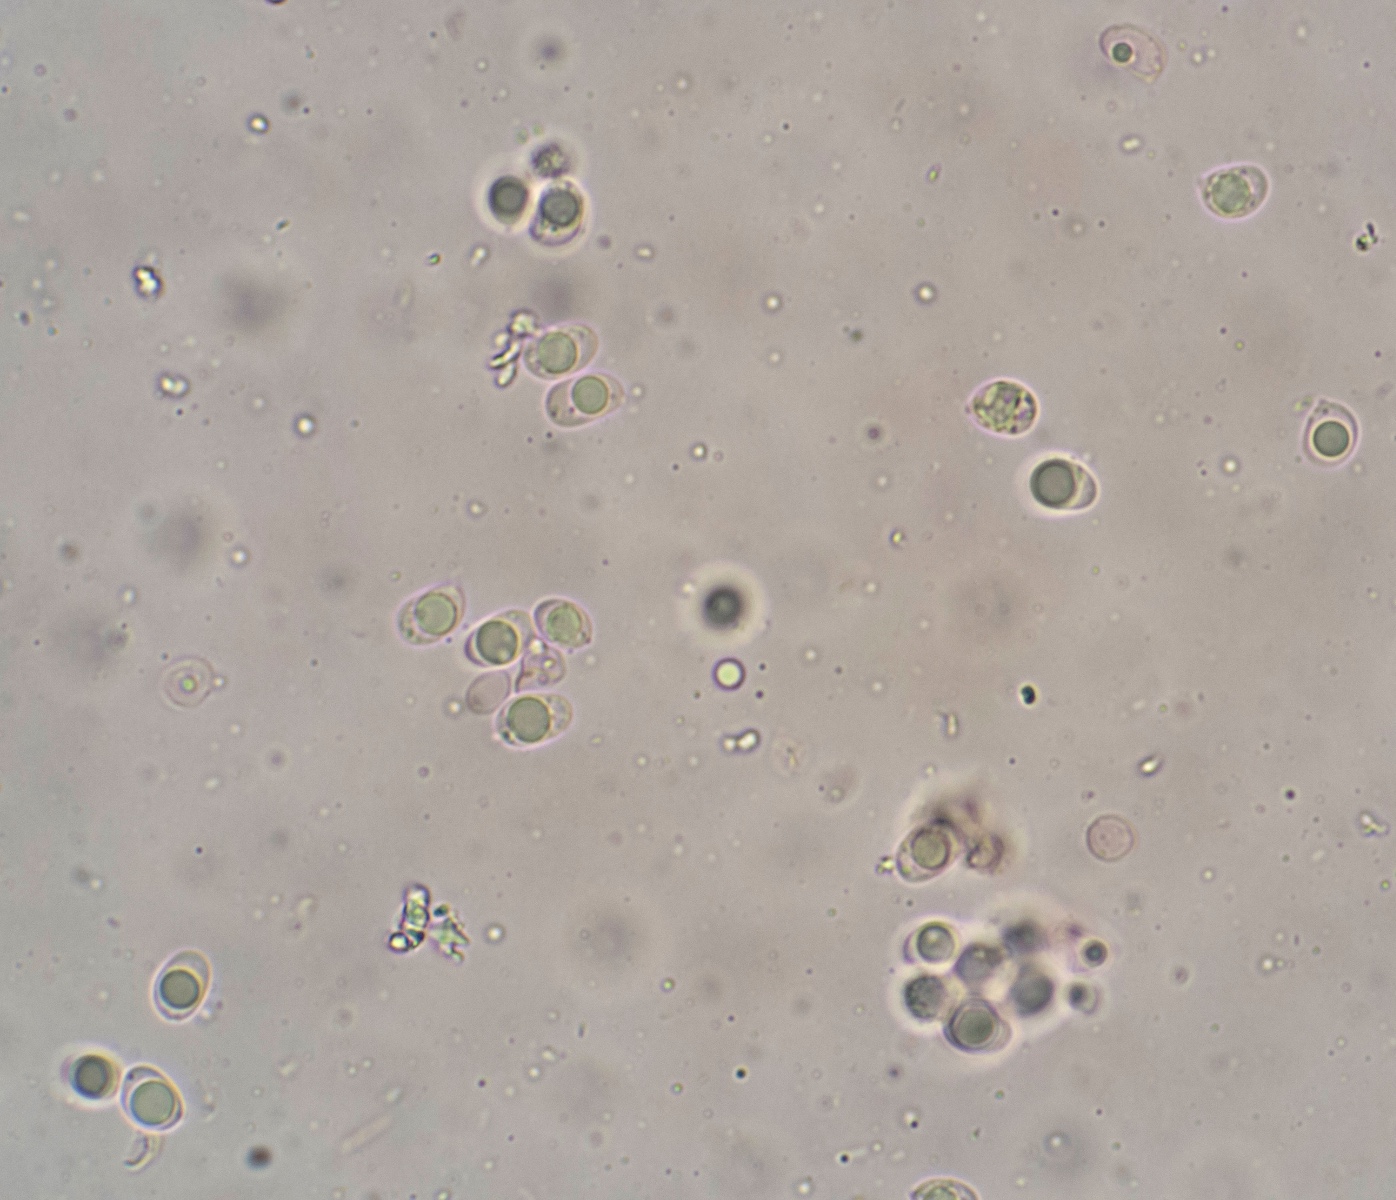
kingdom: Fungi
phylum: Basidiomycota
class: Agaricomycetes
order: Corticiales
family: Corticiaceae
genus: Lyomyces
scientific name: Lyomyces sambuci
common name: almindelig hyldehinde
